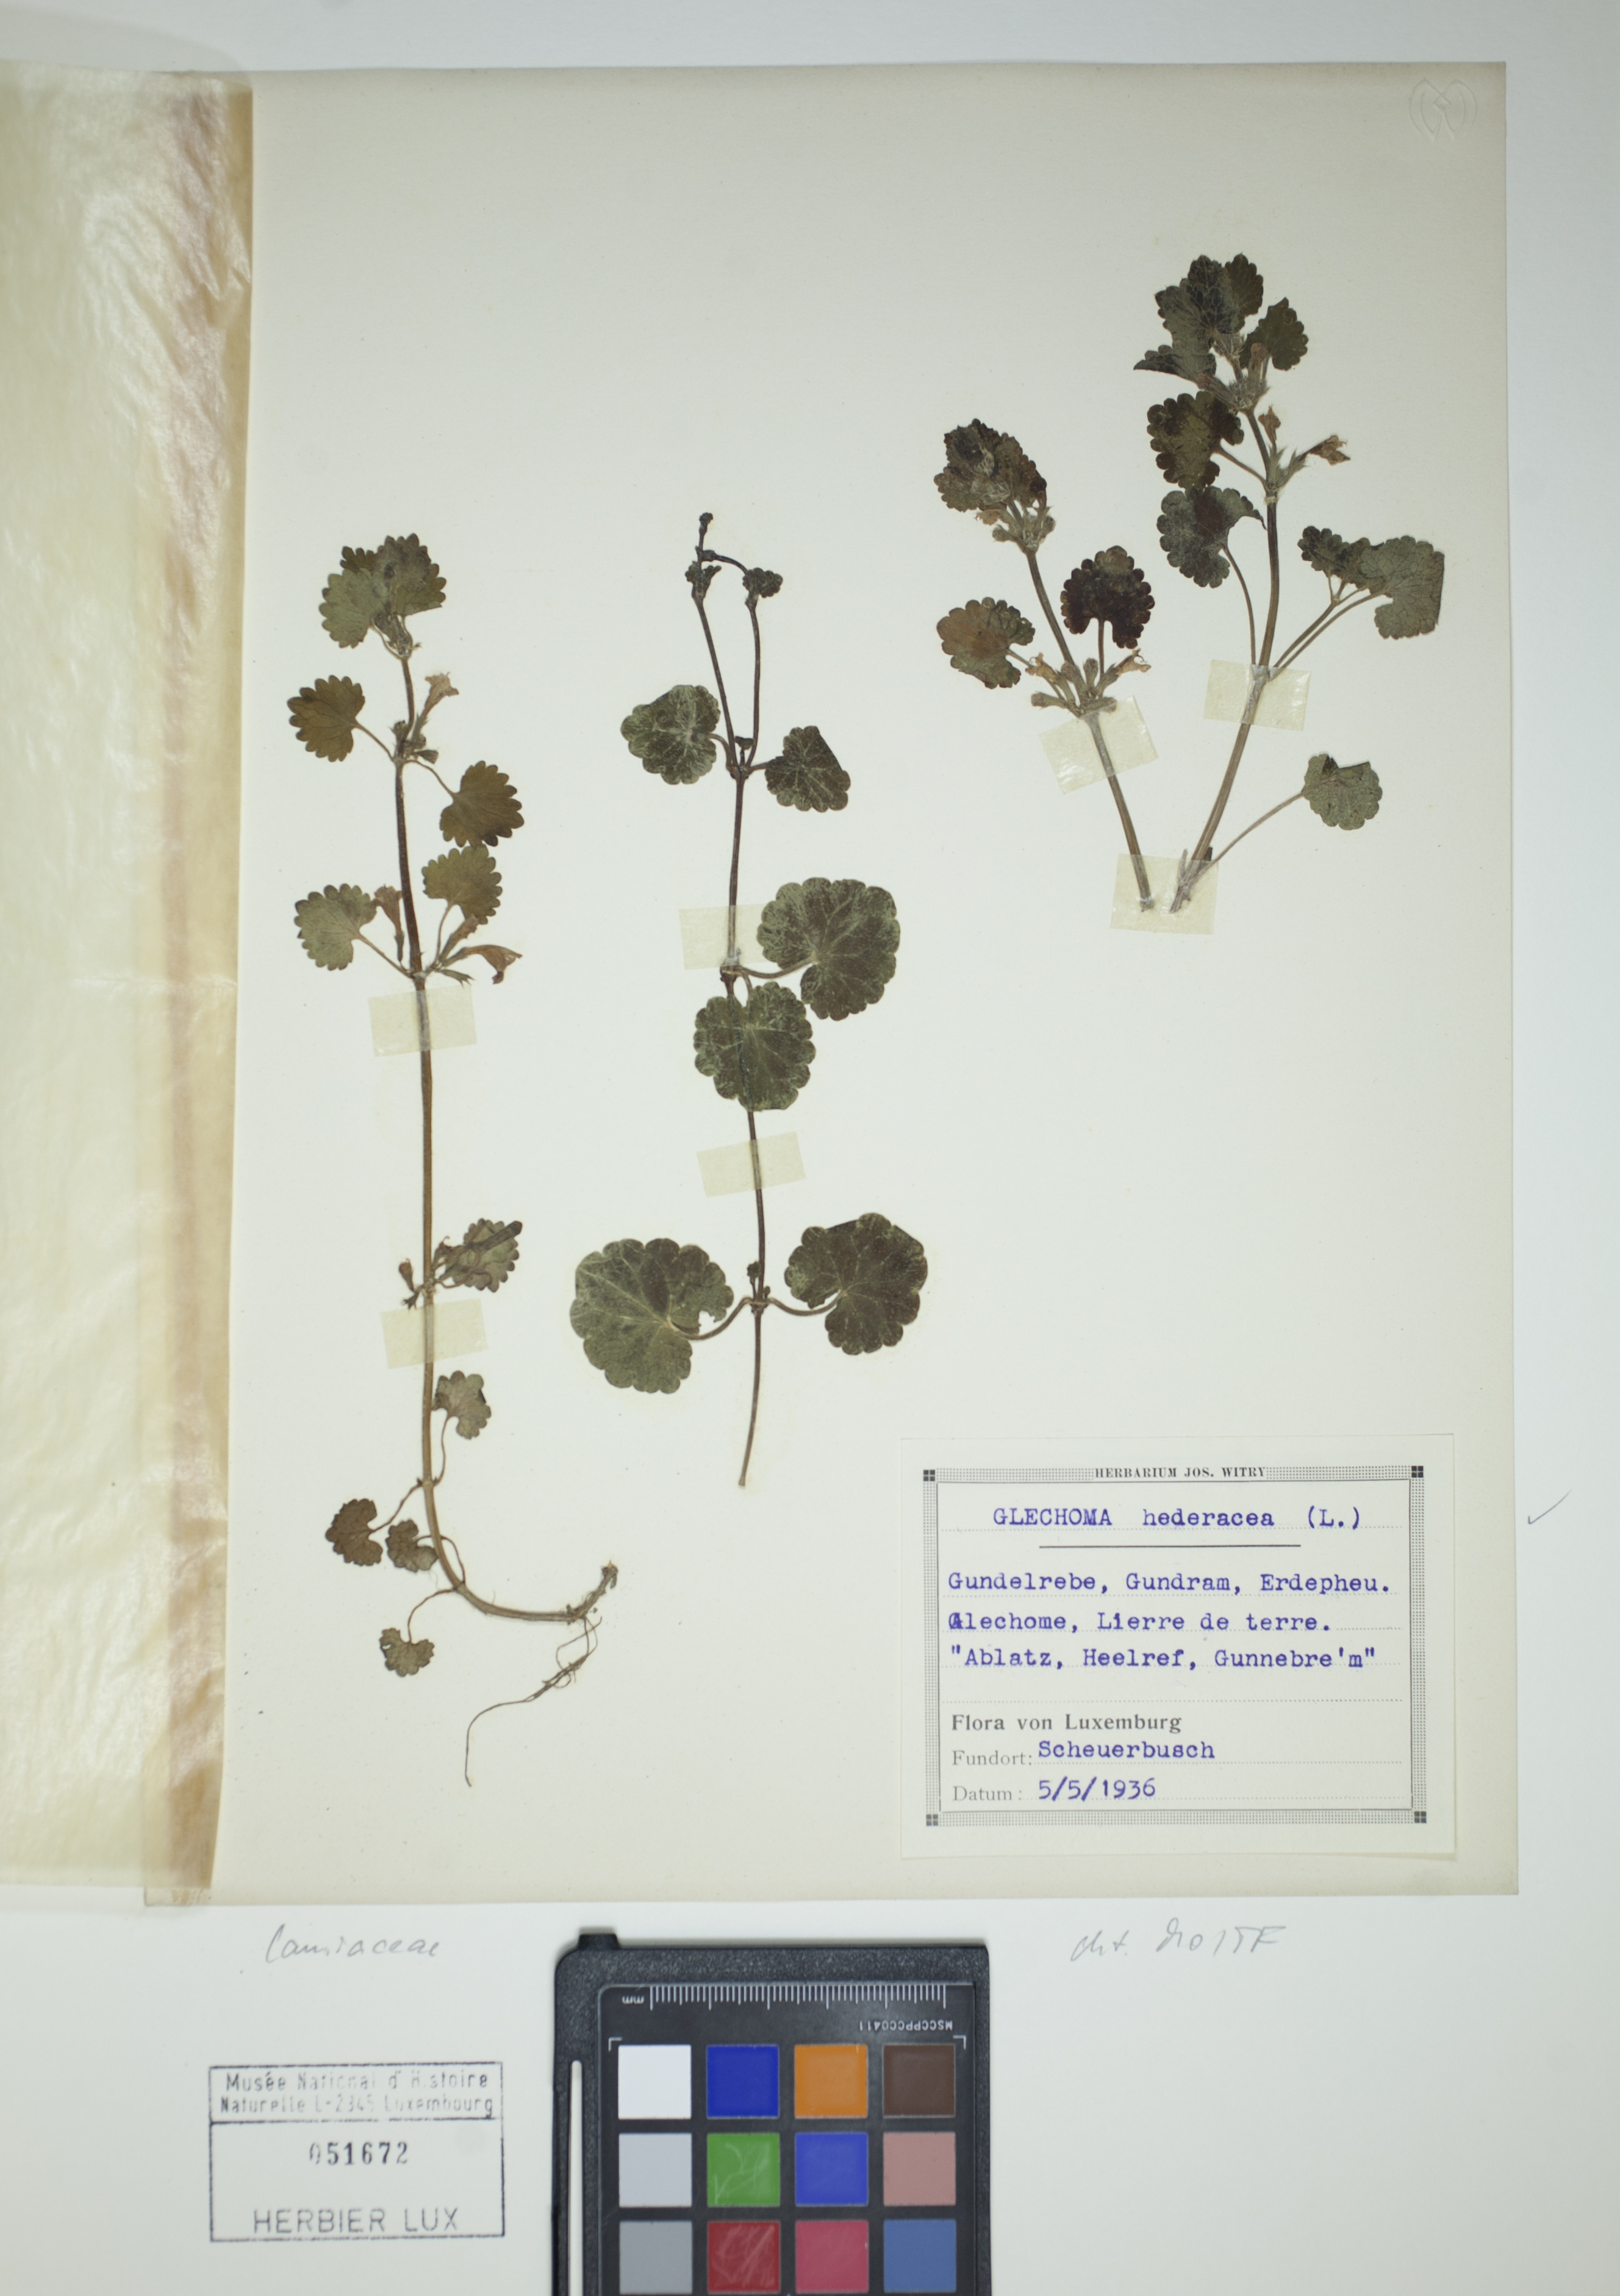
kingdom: Plantae
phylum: Tracheophyta
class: Magnoliopsida
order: Lamiales
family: Lamiaceae
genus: Glechoma
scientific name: Glechoma hederacea
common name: Ground ivy
